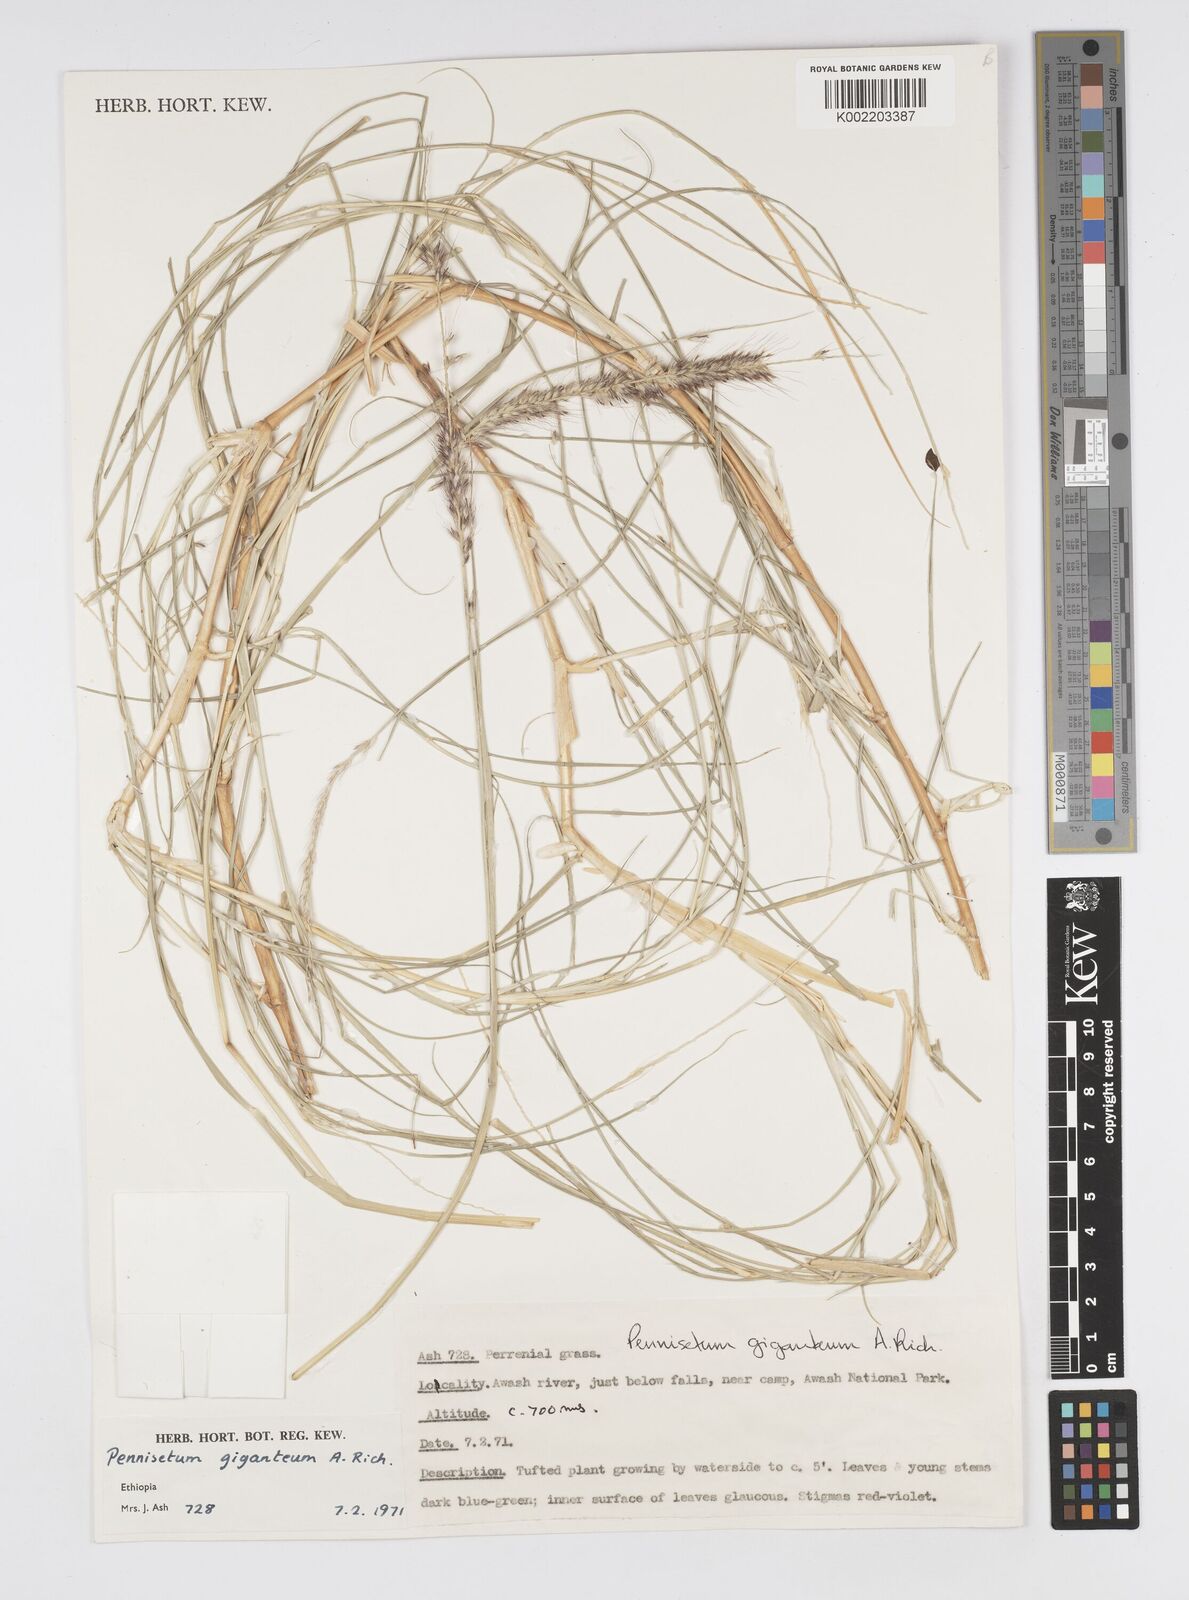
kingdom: Plantae
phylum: Tracheophyta
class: Liliopsida
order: Poales
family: Poaceae
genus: Cenchrus
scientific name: Cenchrus caudatus
